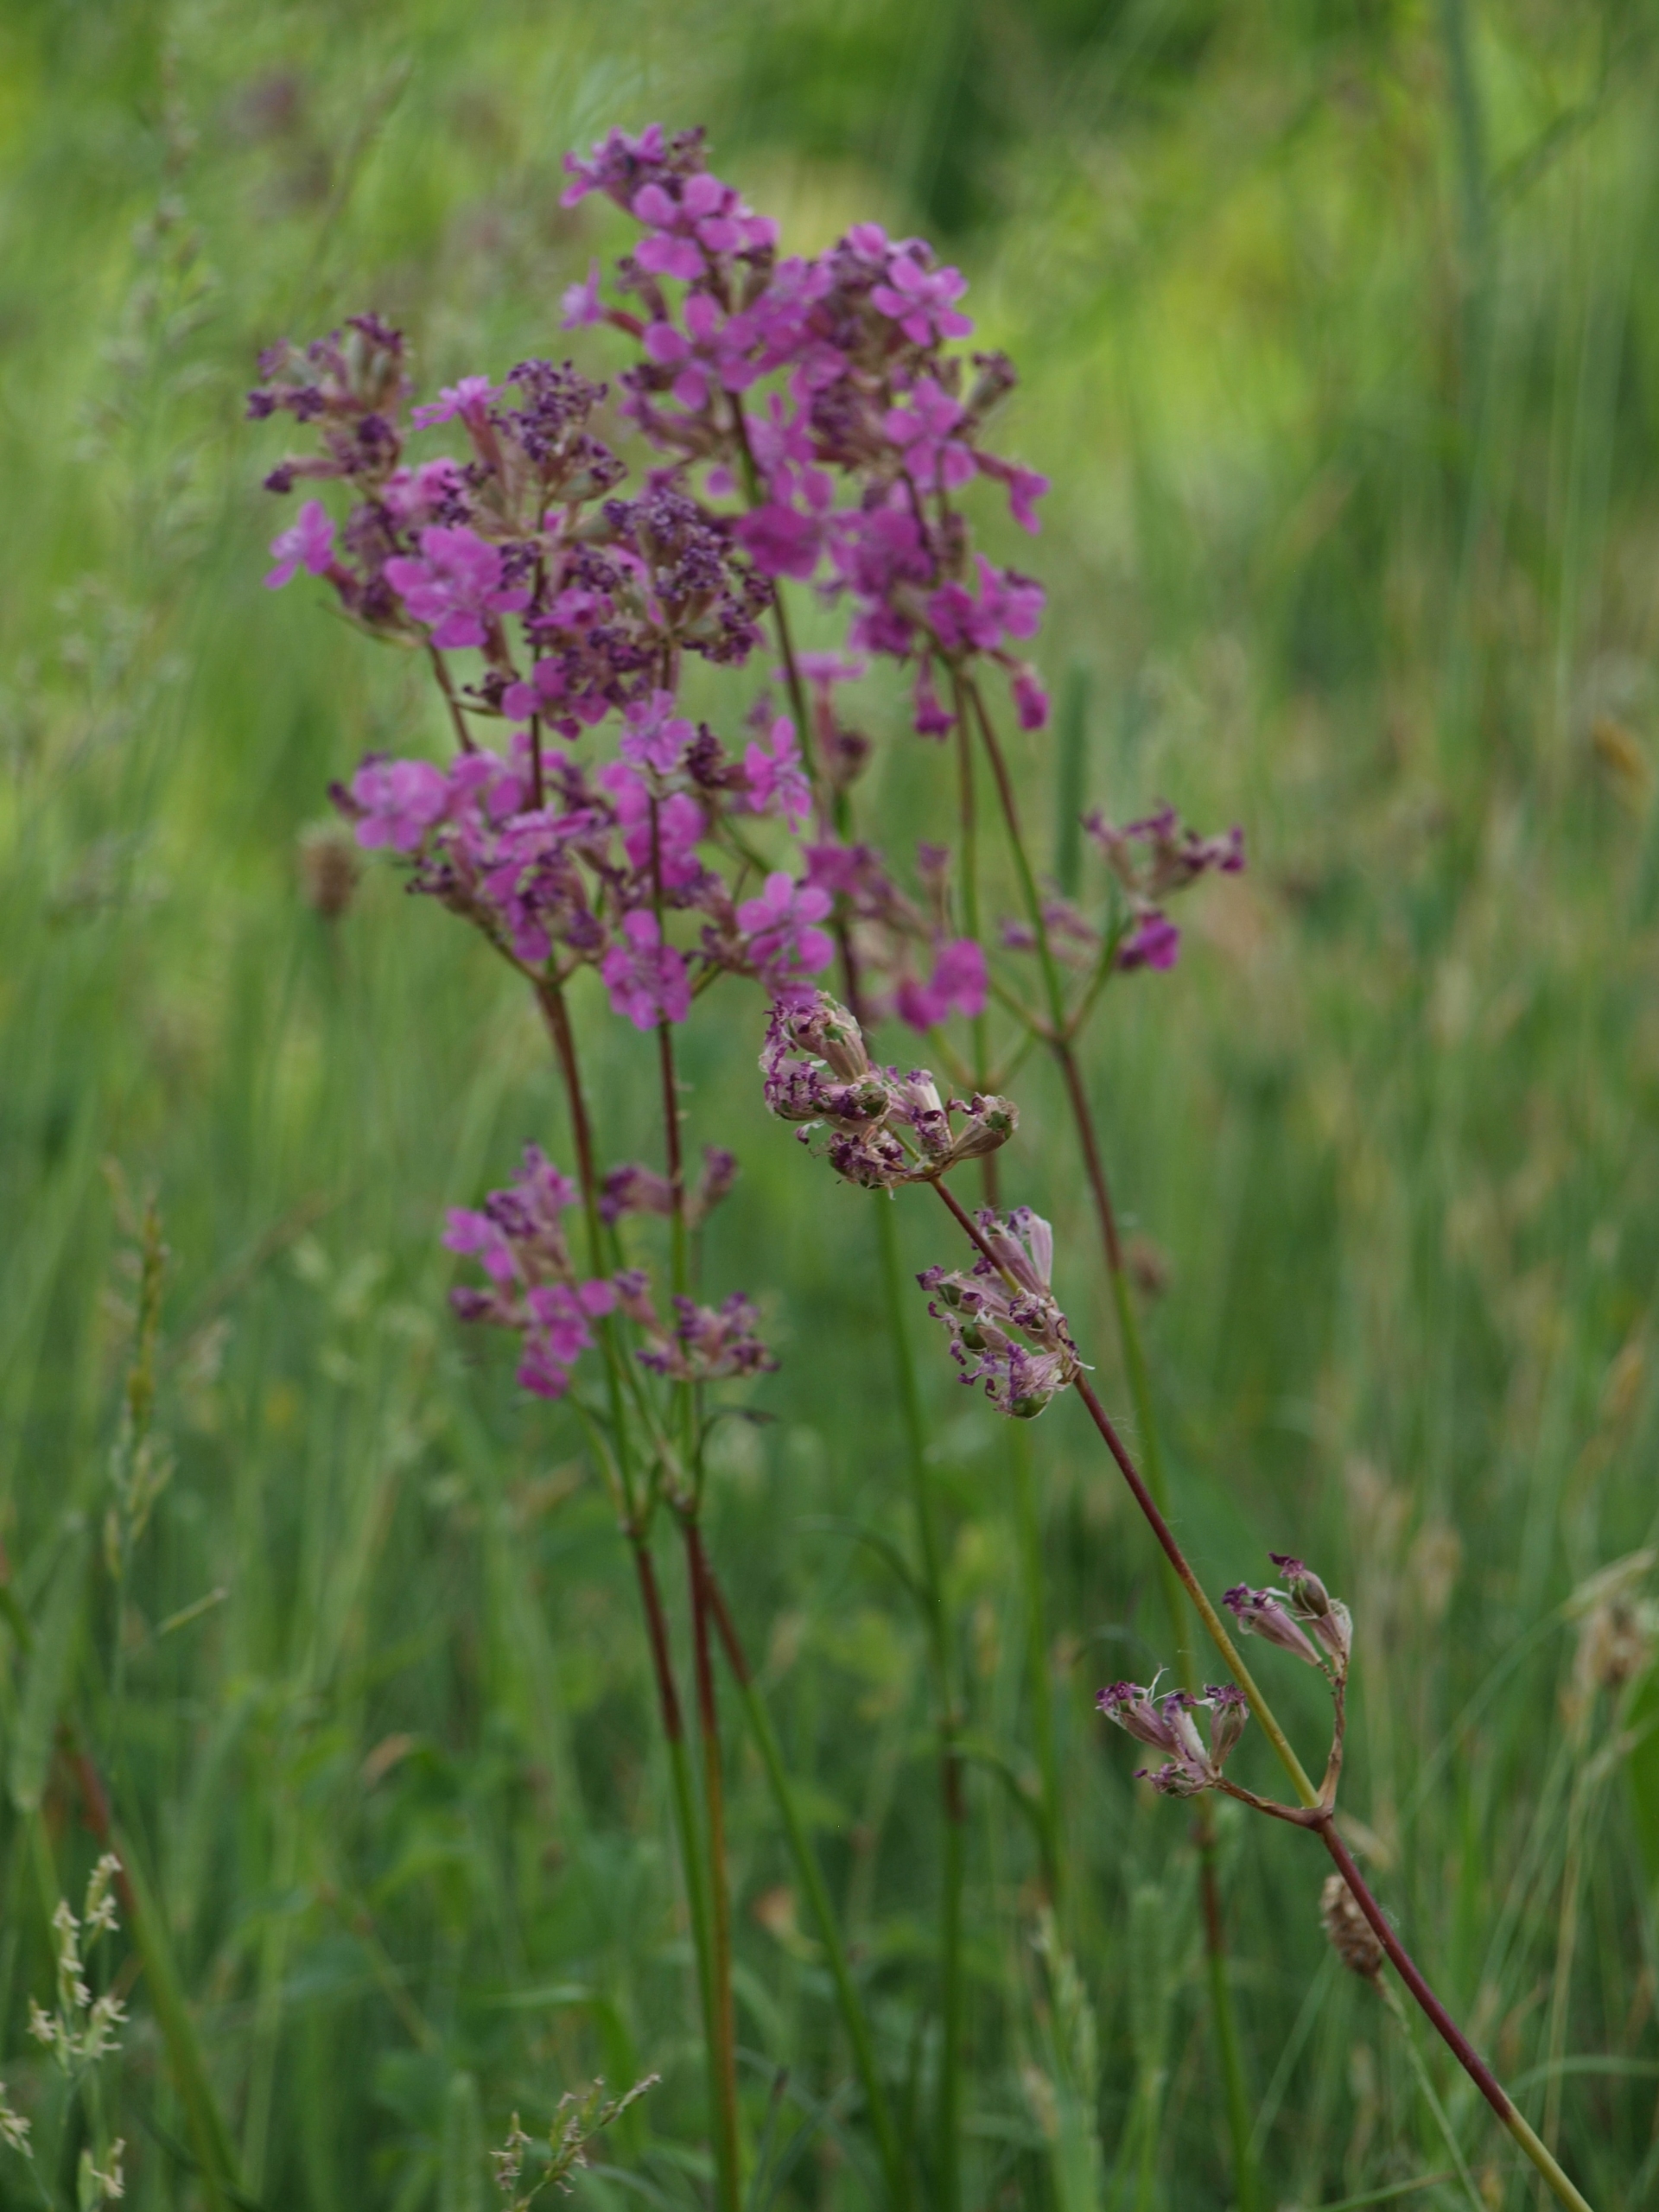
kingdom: Plantae
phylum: Tracheophyta
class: Magnoliopsida
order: Caryophyllales
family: Caryophyllaceae
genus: Viscaria
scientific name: Viscaria vulgaris
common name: Tjærenellike
